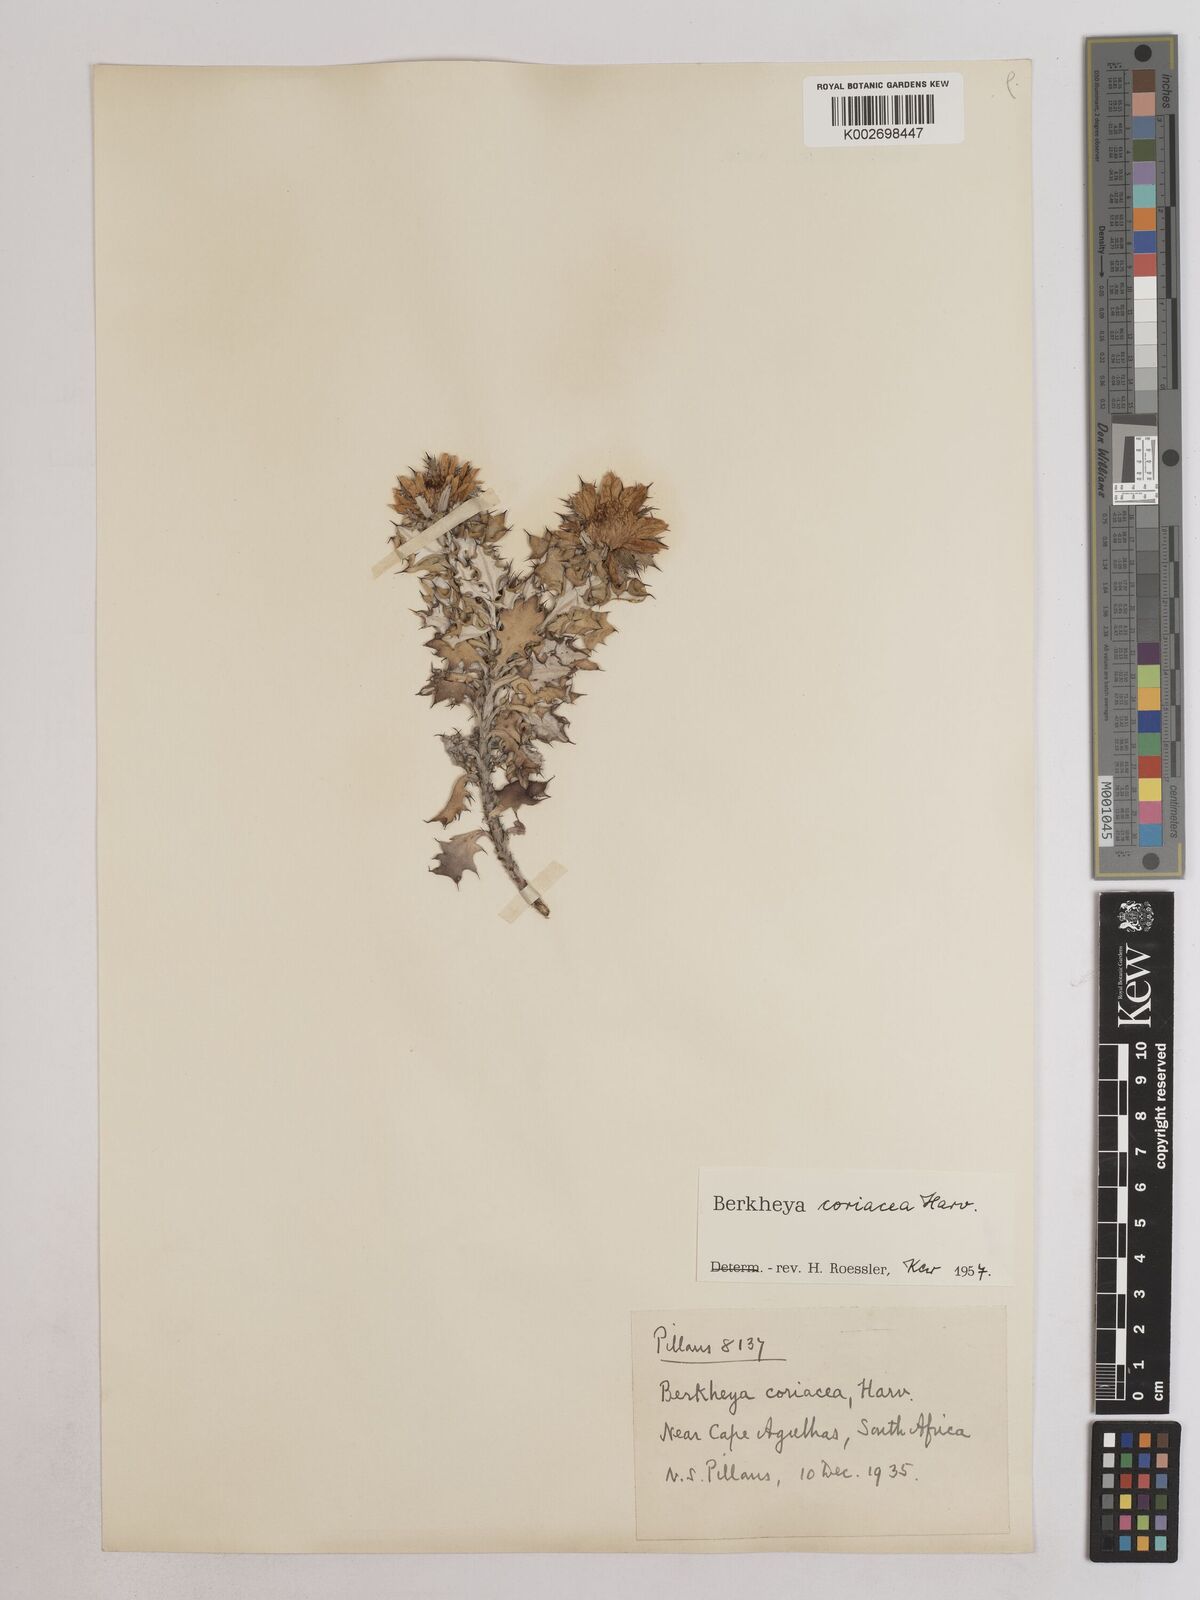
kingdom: Plantae
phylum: Tracheophyta
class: Magnoliopsida
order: Asterales
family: Asteraceae
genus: Berkheya
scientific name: Berkheya coriacea
